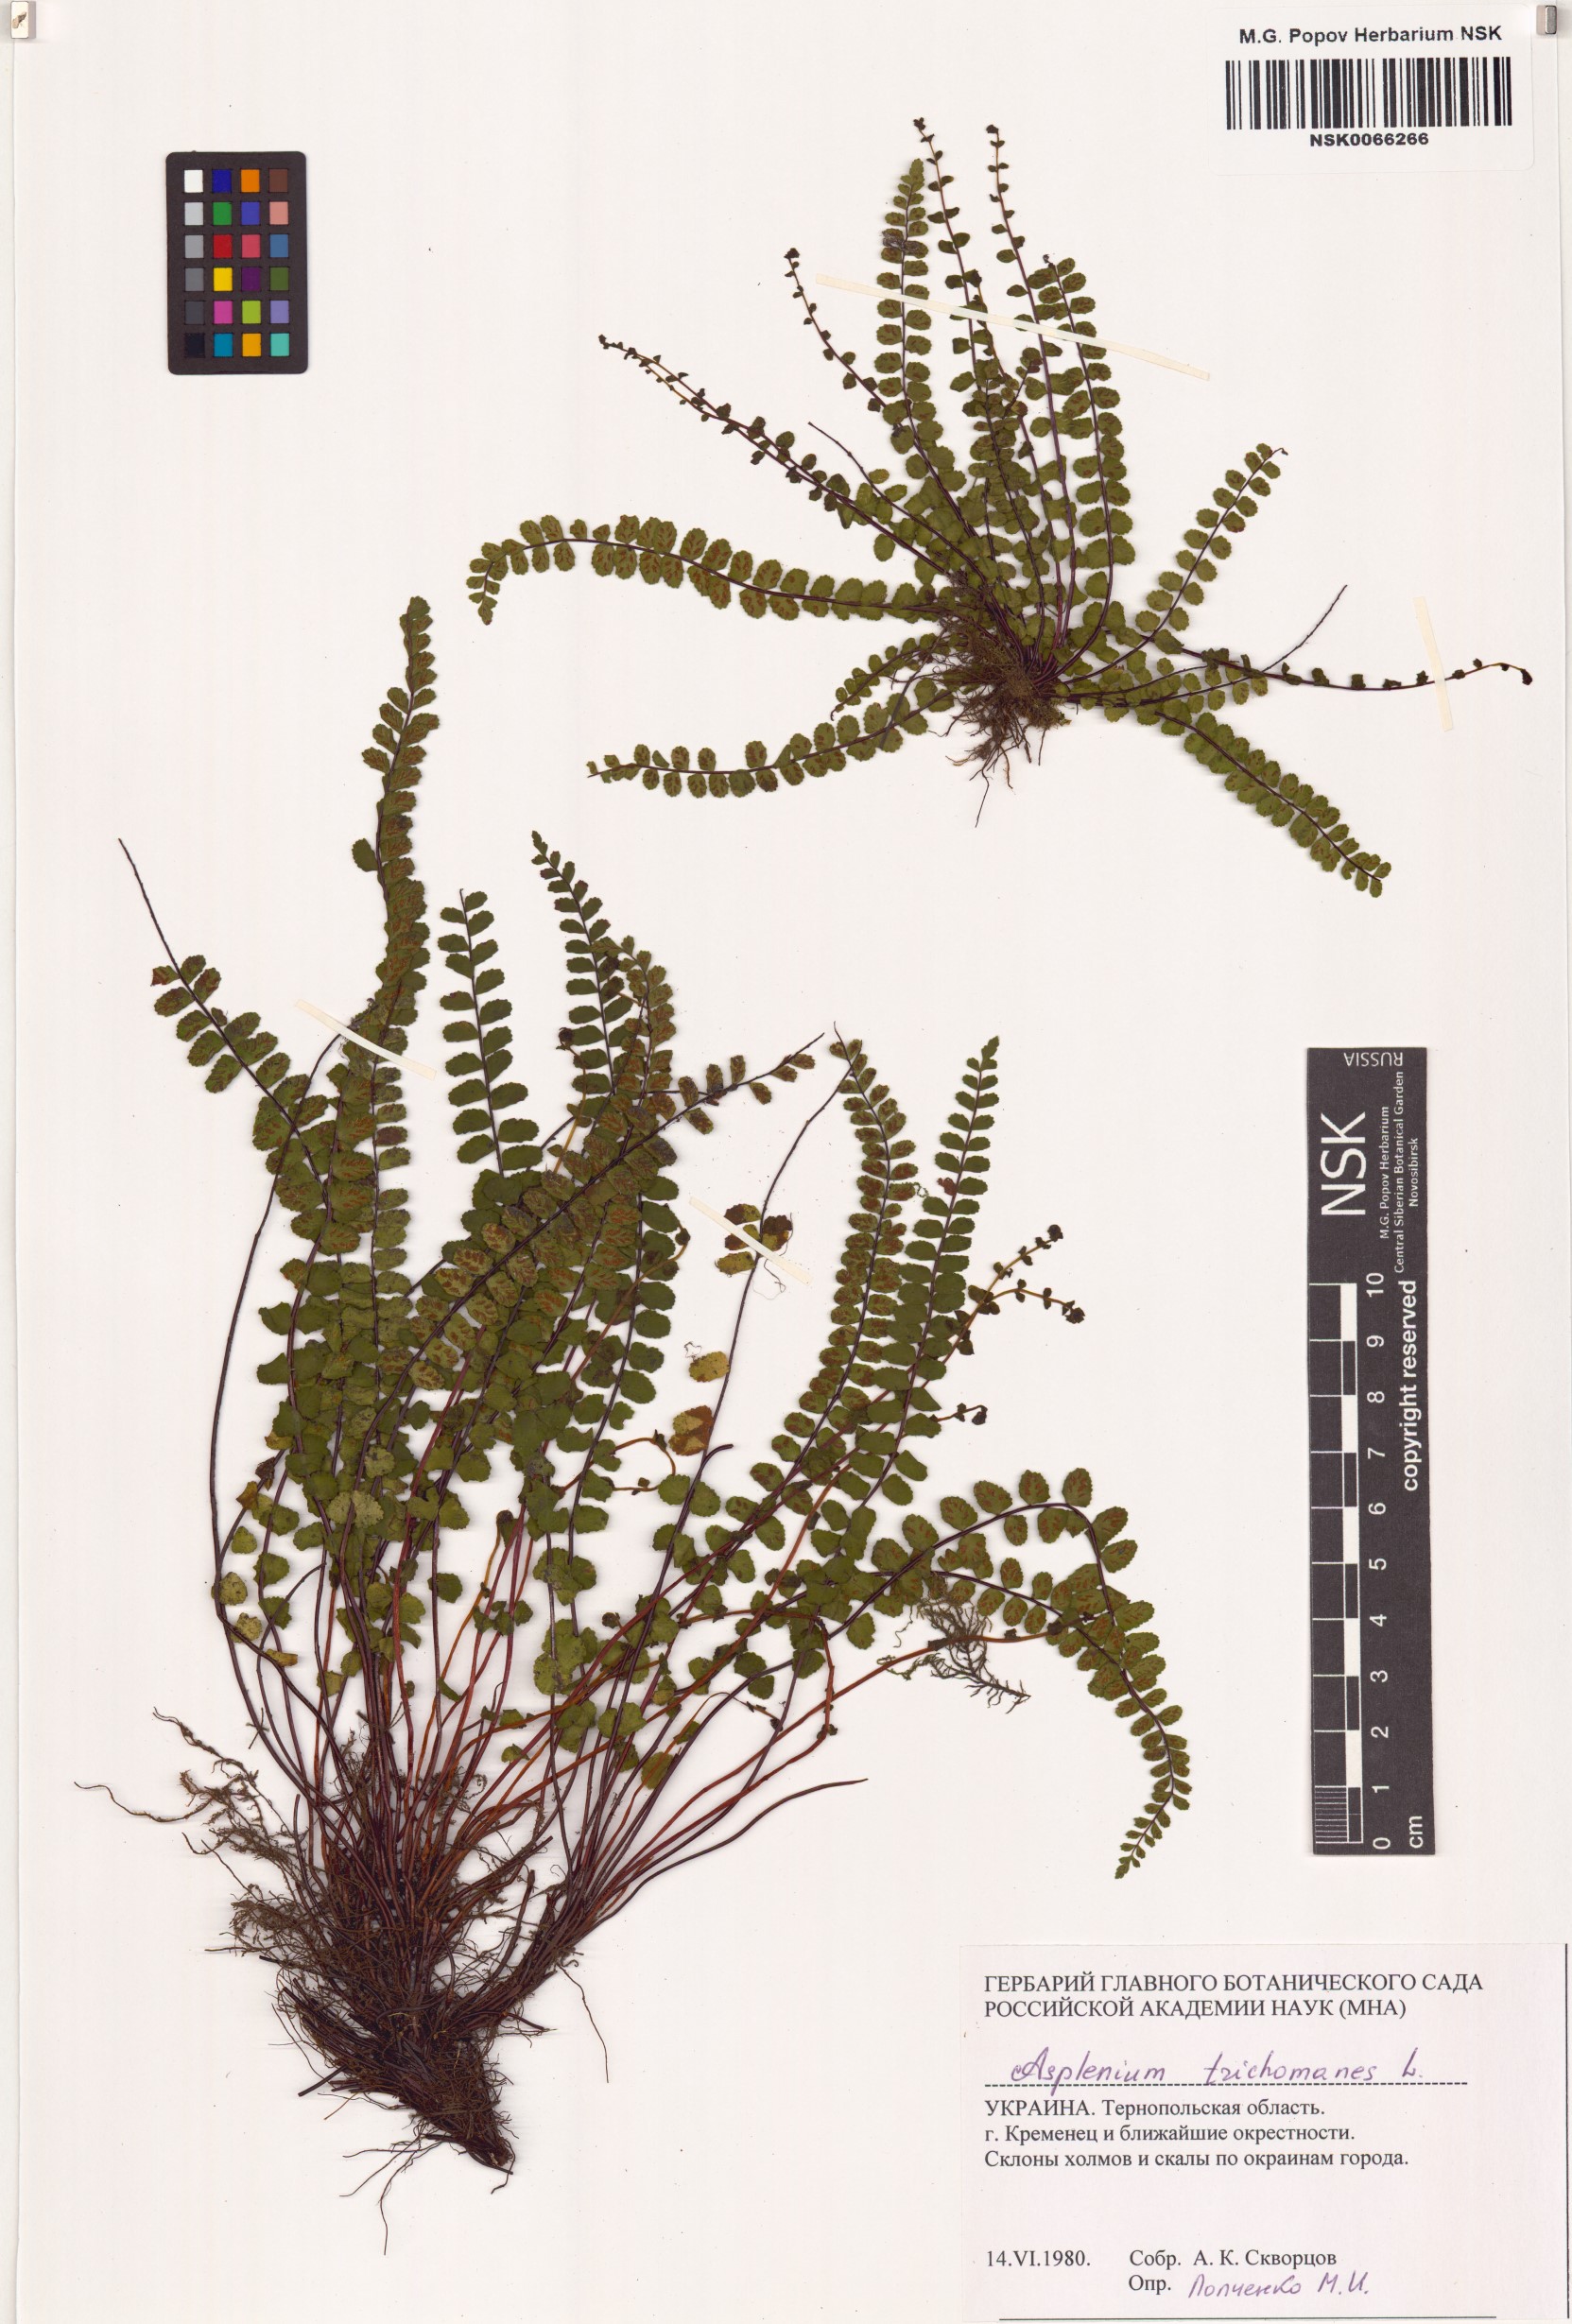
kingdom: Plantae
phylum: Tracheophyta
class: Polypodiopsida
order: Polypodiales
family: Aspleniaceae
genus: Asplenium
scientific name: Asplenium trichomanes
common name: Maidenhair spleenwort
